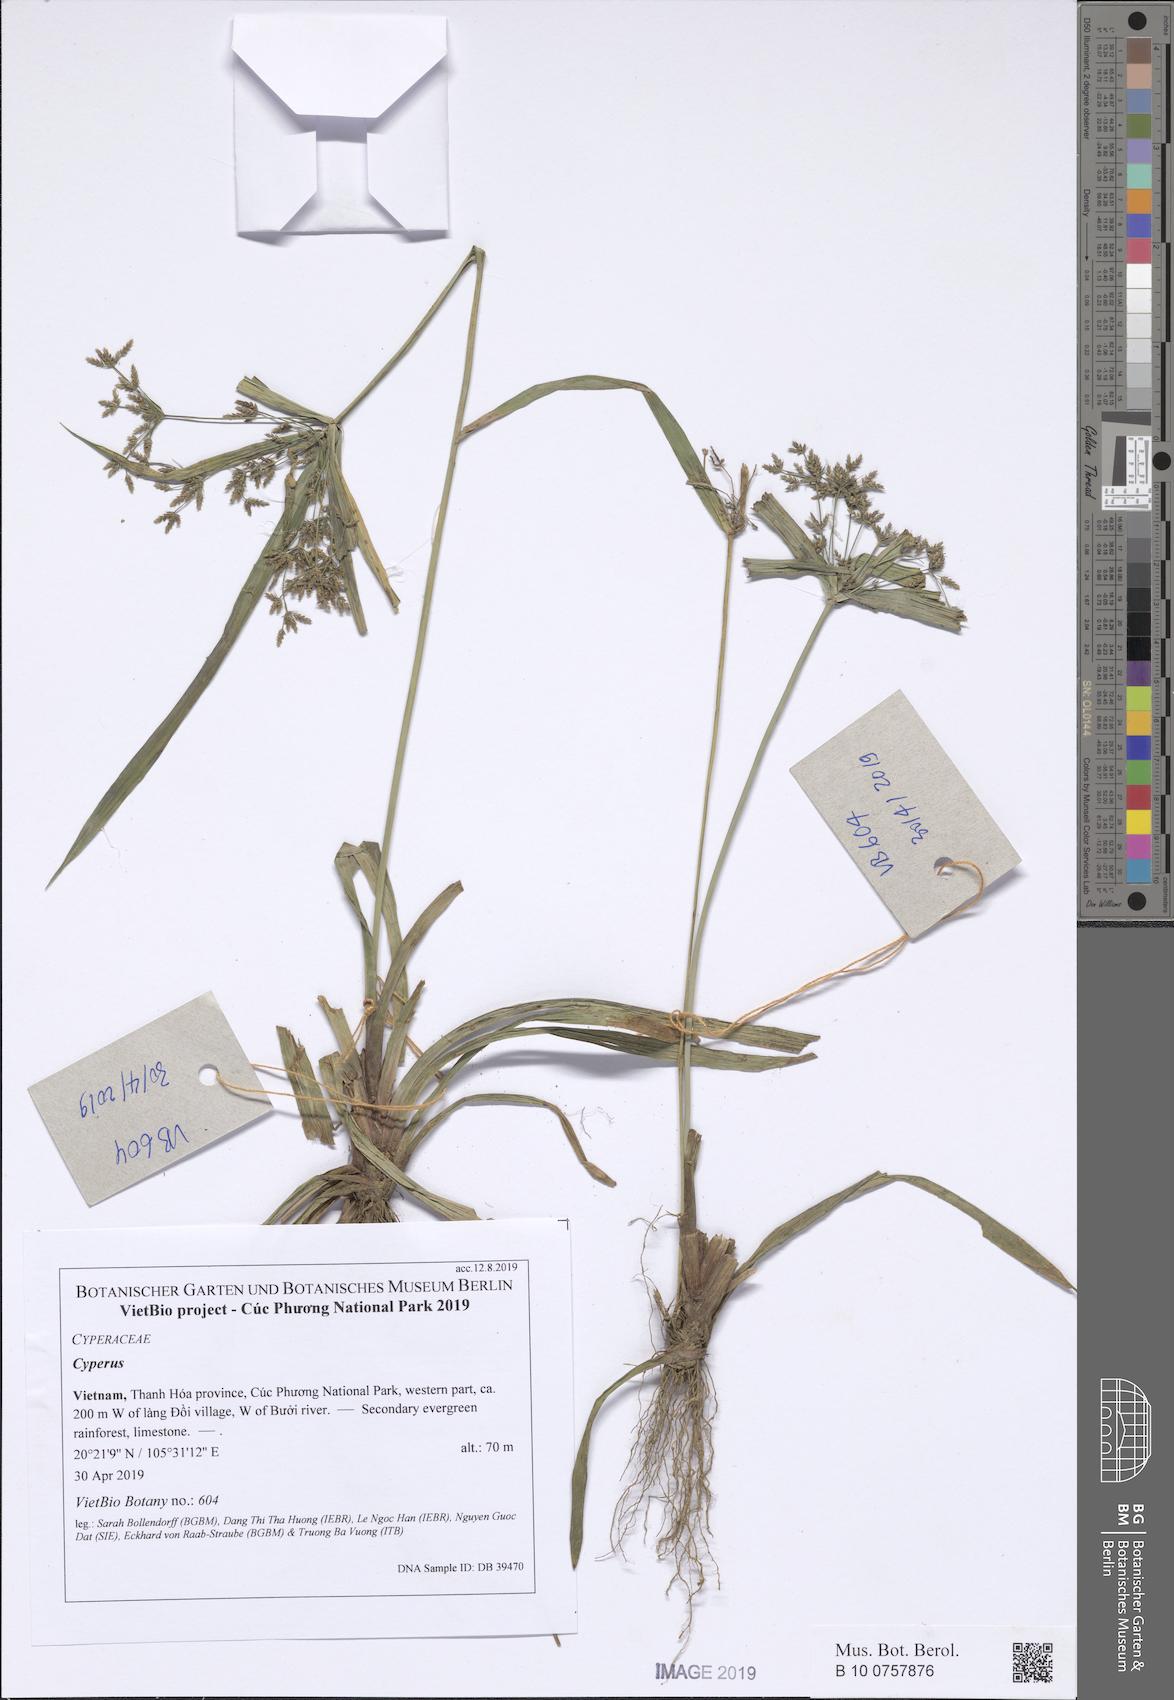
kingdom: Plantae
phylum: Tracheophyta
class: Liliopsida
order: Poales
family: Cyperaceae
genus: Cyperus
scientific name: Cyperus distans
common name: Slender cyperus
